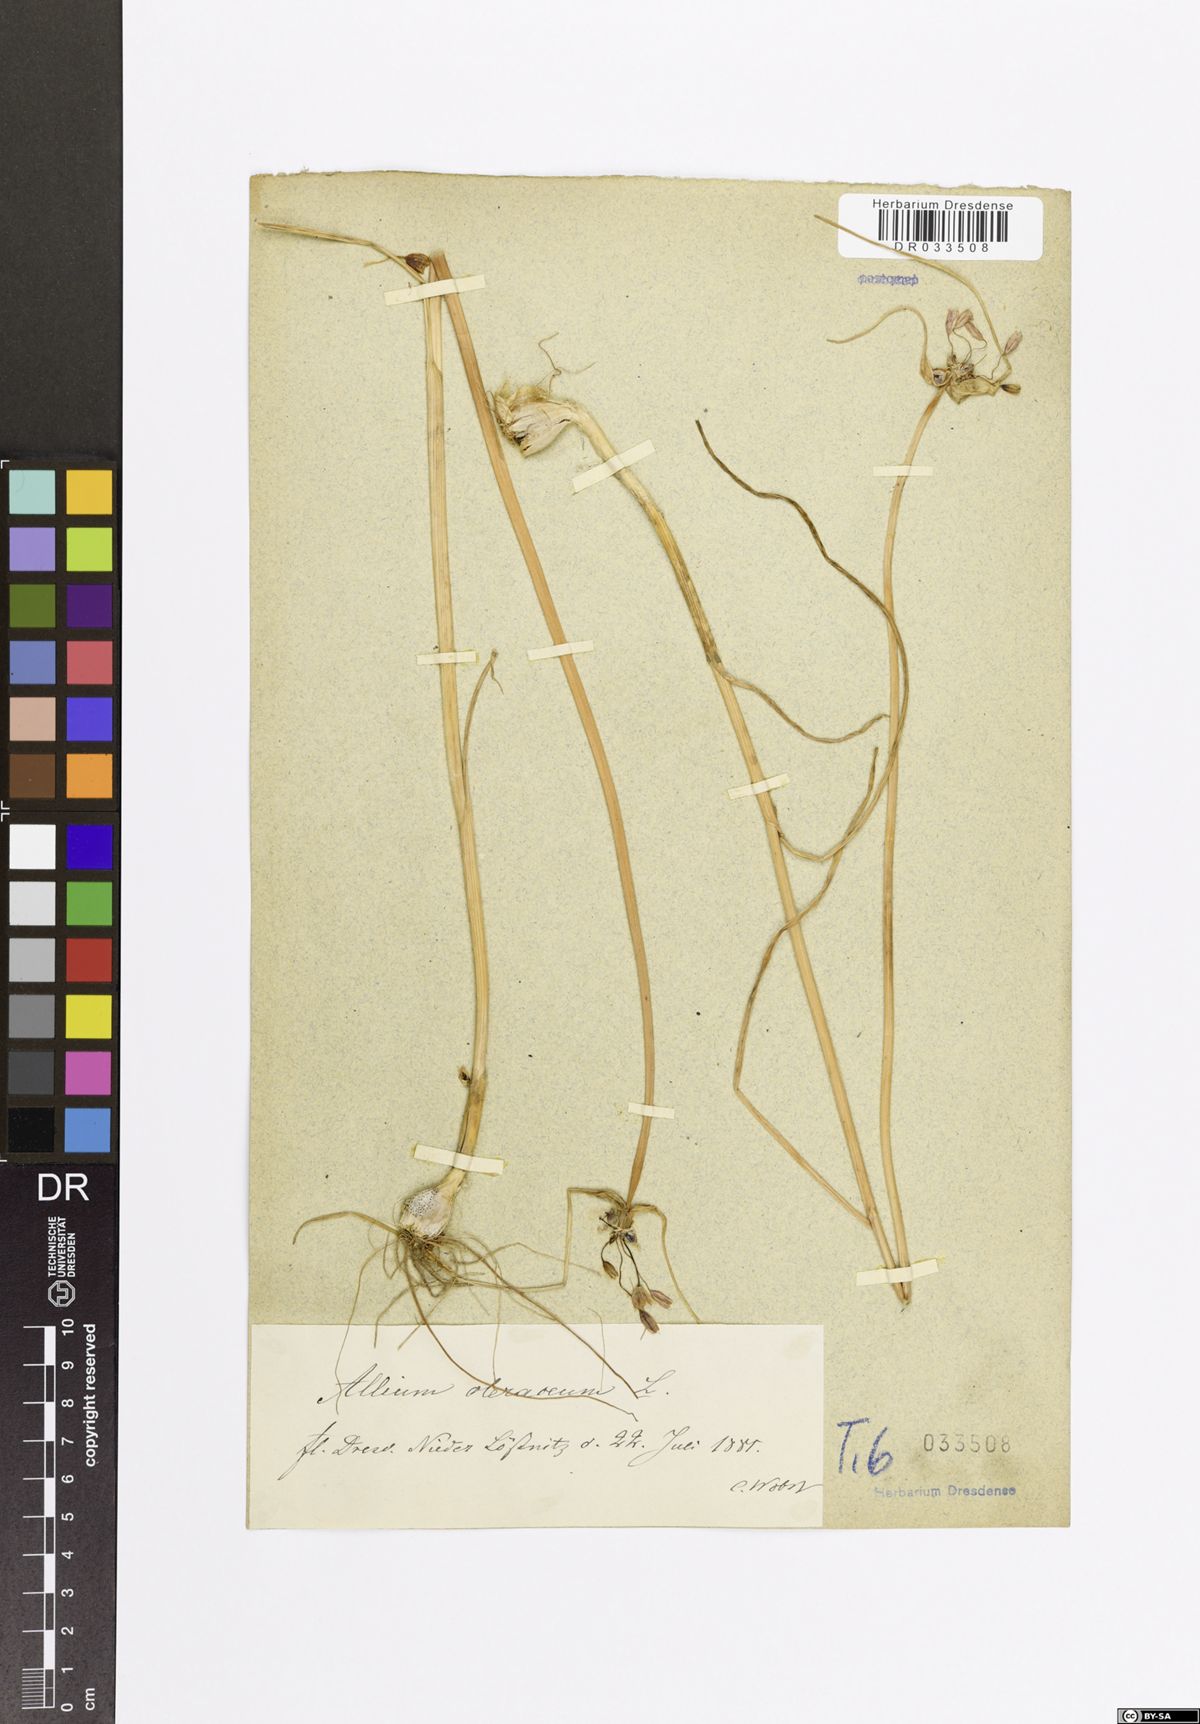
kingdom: Plantae
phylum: Tracheophyta
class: Liliopsida
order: Asparagales
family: Amaryllidaceae
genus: Allium
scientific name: Allium oleraceum
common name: Field garlic
